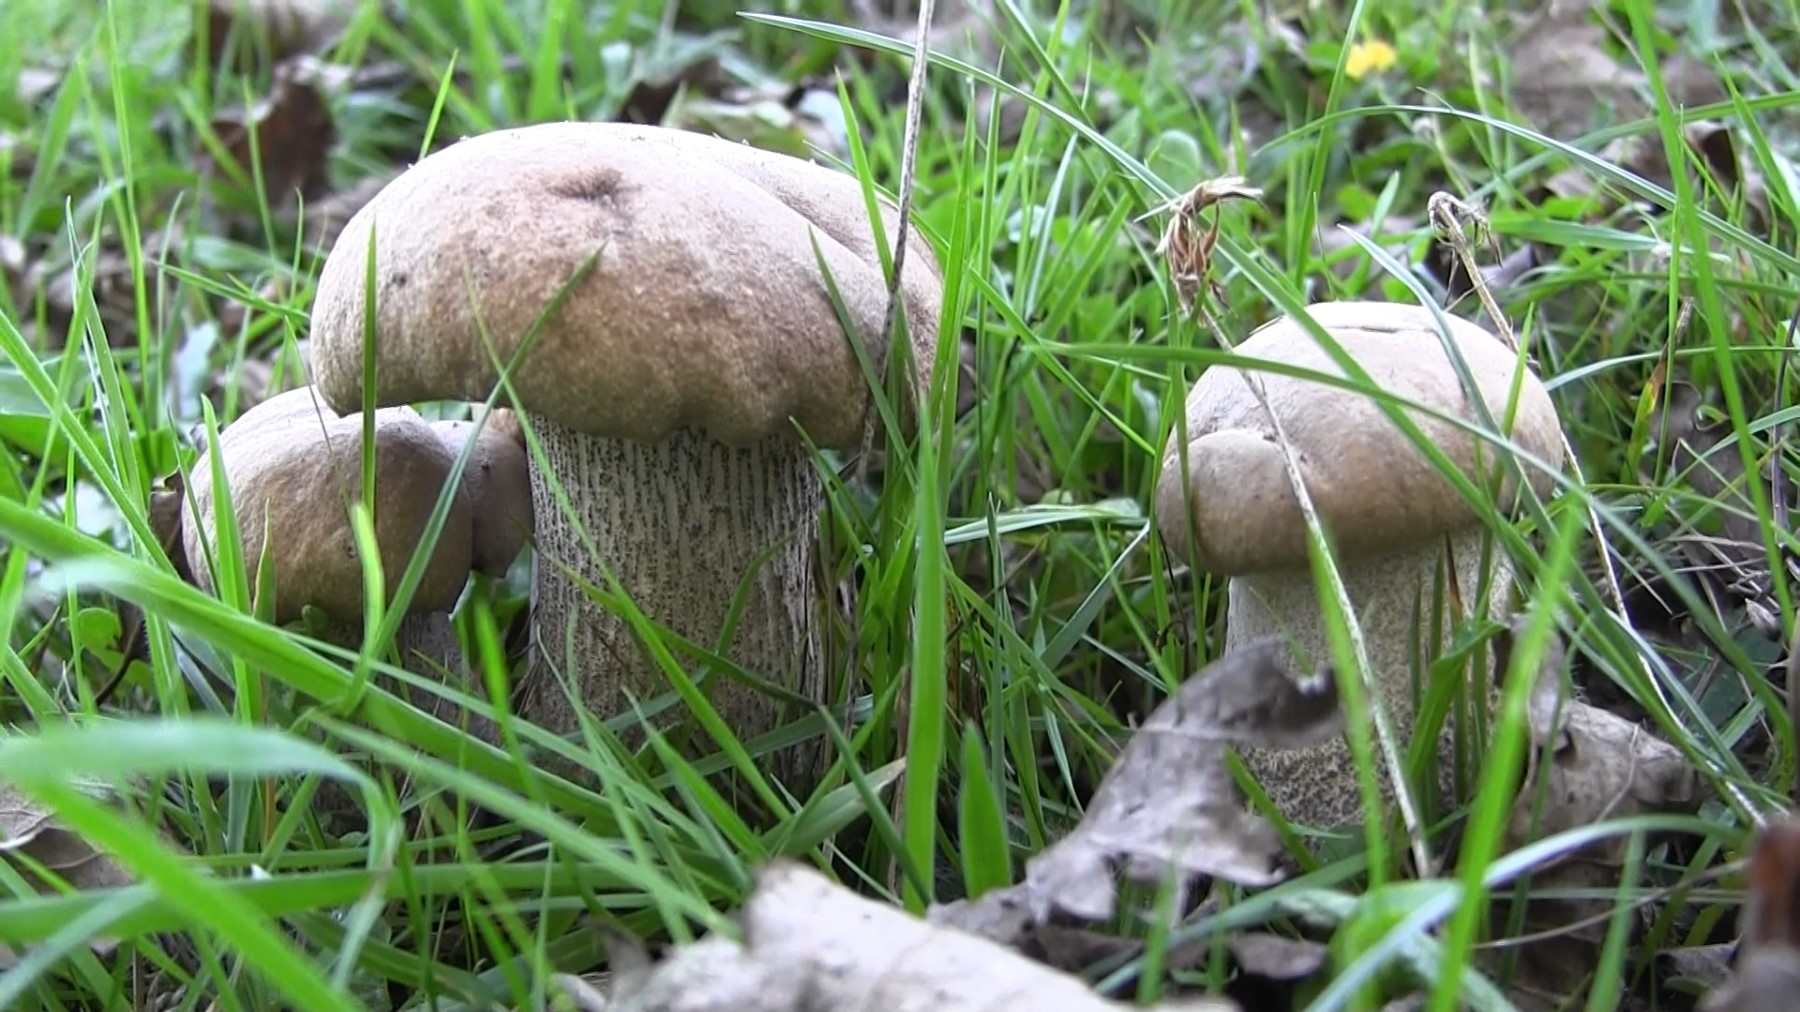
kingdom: Fungi
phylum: Basidiomycota
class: Agaricomycetes
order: Boletales
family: Boletaceae
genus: Leccinum
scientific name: Leccinum duriusculum
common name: poppel-skælrørhat
